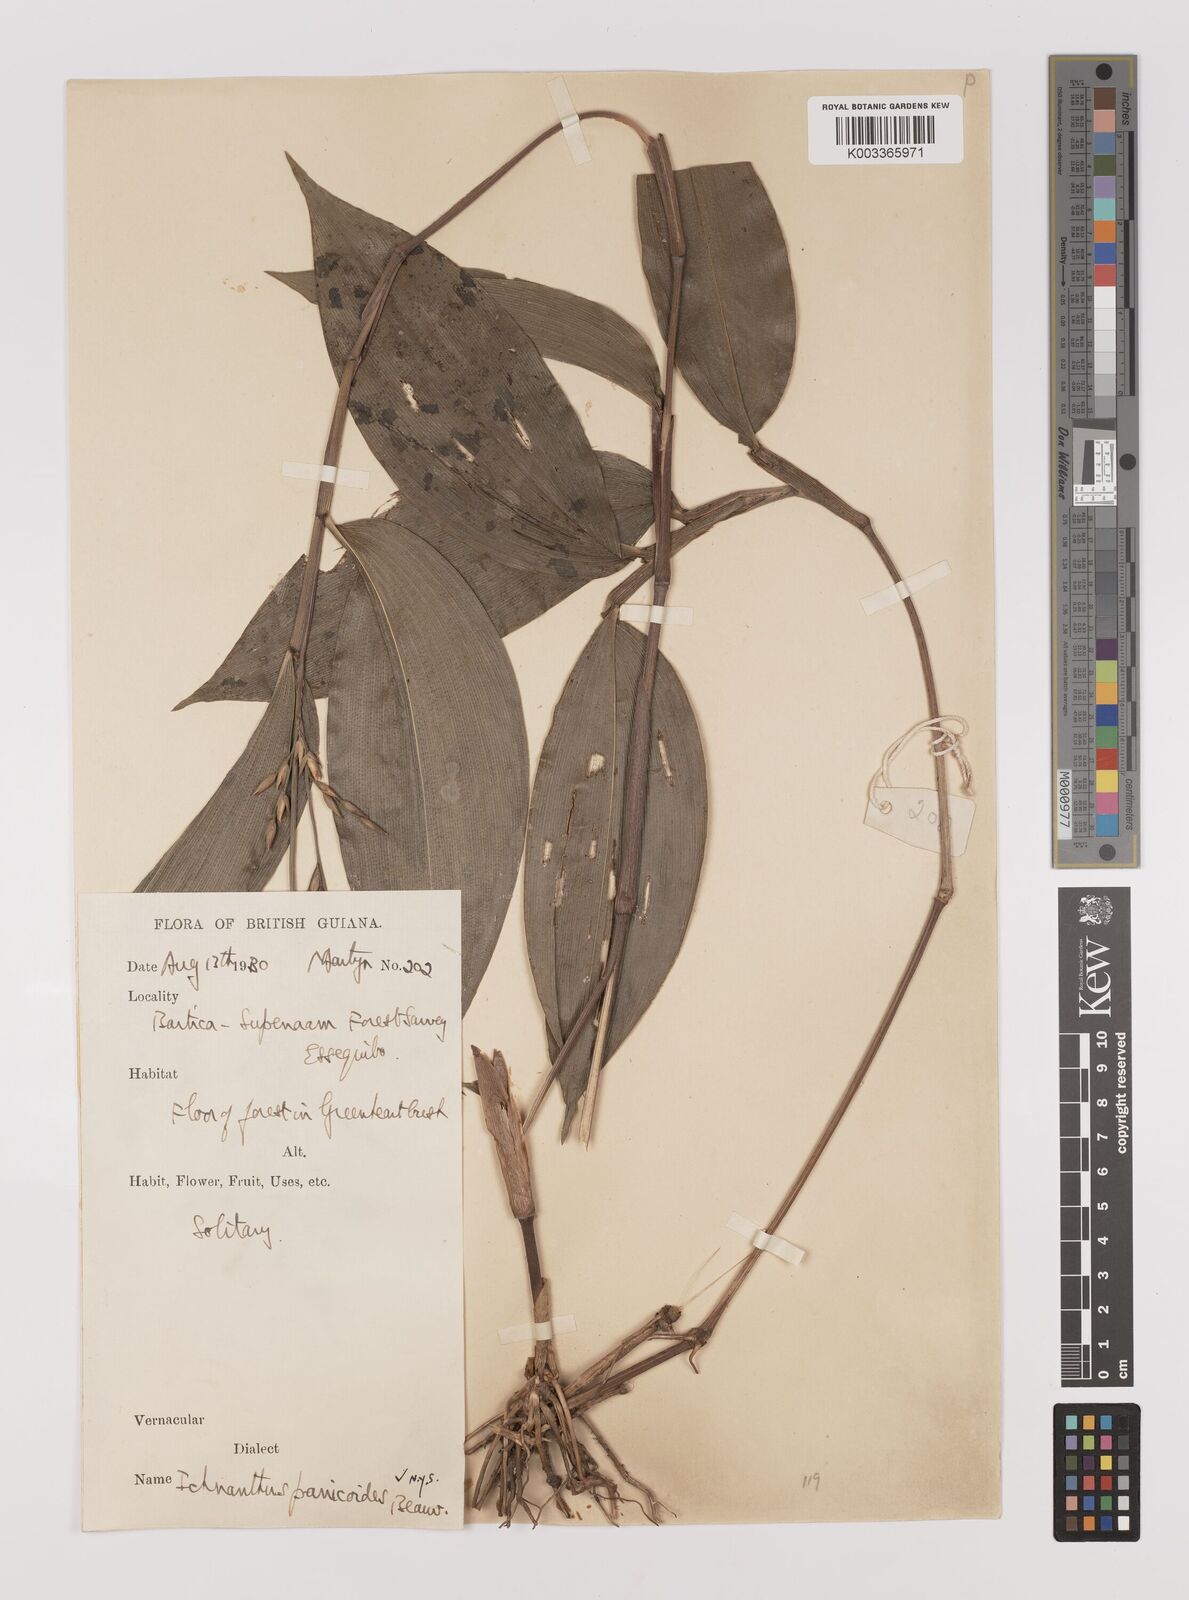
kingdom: Plantae
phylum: Tracheophyta
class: Liliopsida
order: Poales
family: Poaceae
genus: Ichnanthus
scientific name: Ichnanthus panicoides
